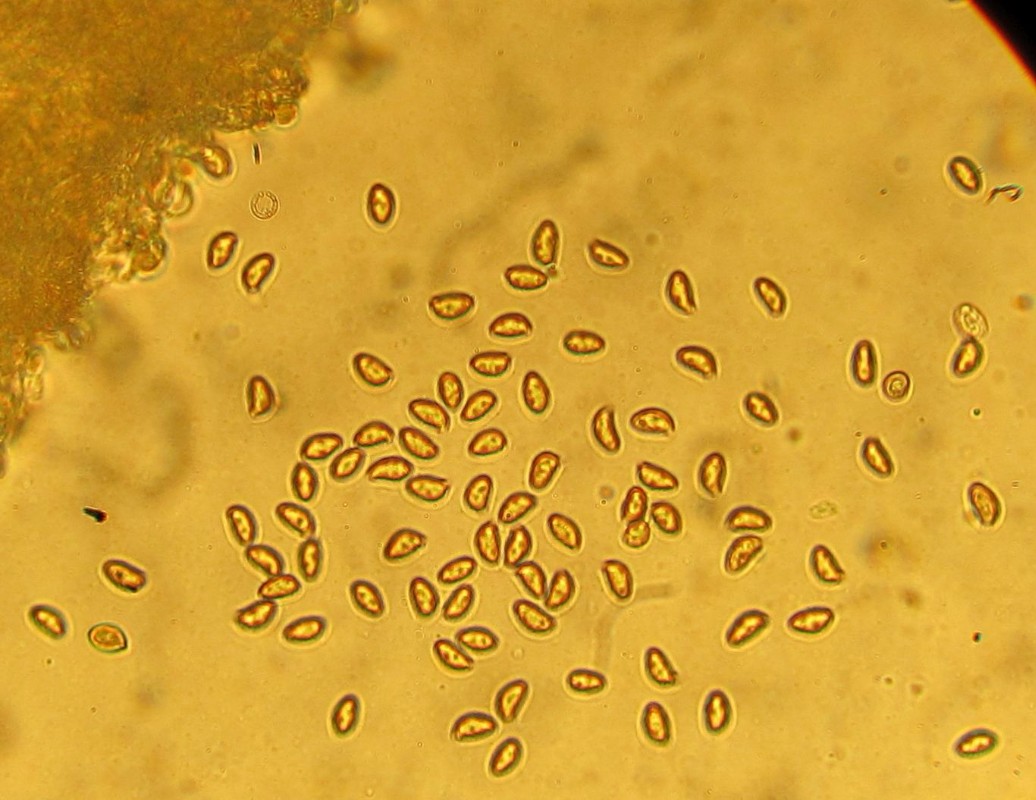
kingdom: Fungi
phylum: Basidiomycota
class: Agaricomycetes
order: Agaricales
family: Inocybaceae
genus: Inocybe
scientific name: Inocybe
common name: almindelig trævlhat
